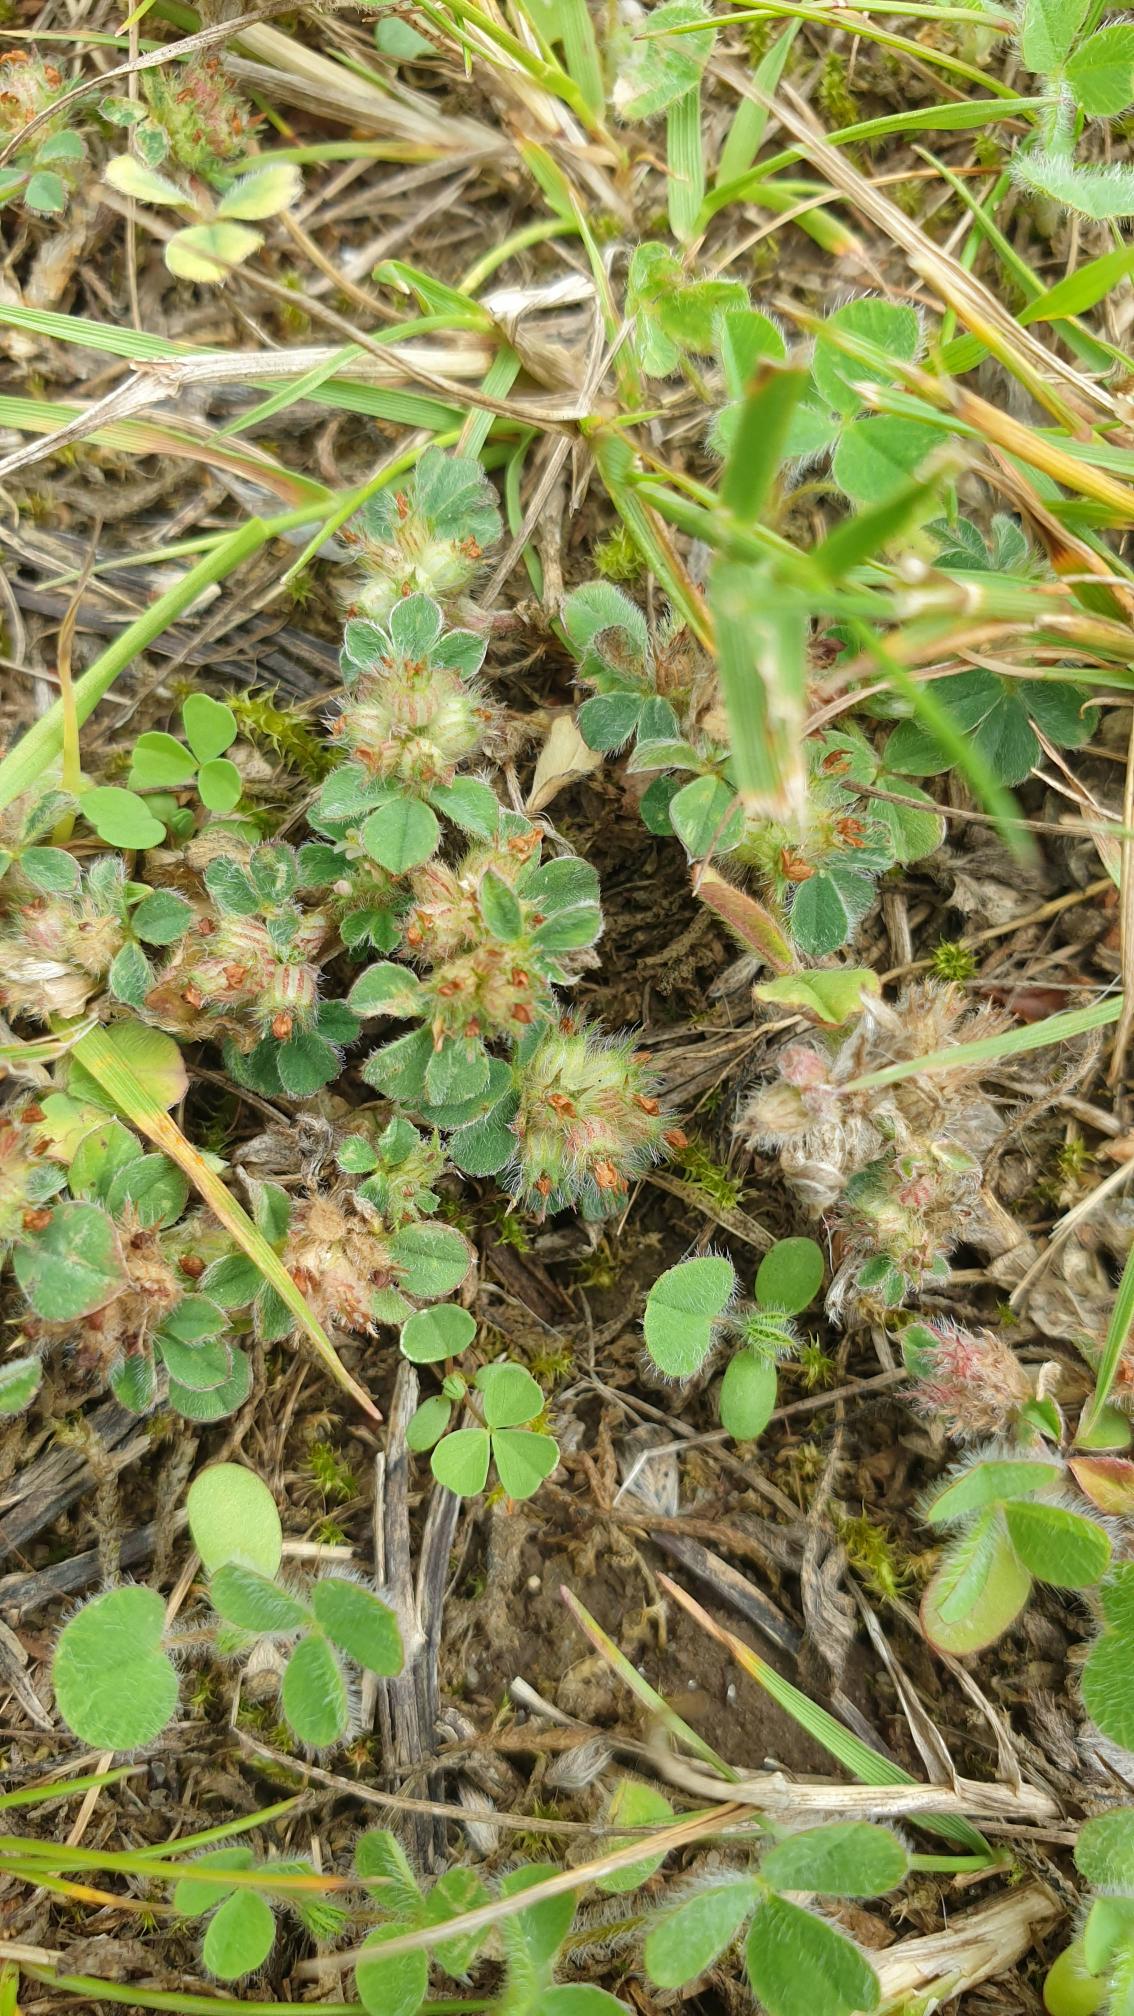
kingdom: Plantae
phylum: Tracheophyta
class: Magnoliopsida
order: Fabales
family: Fabaceae
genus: Trifolium
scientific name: Trifolium striatum
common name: Stribet kløver
